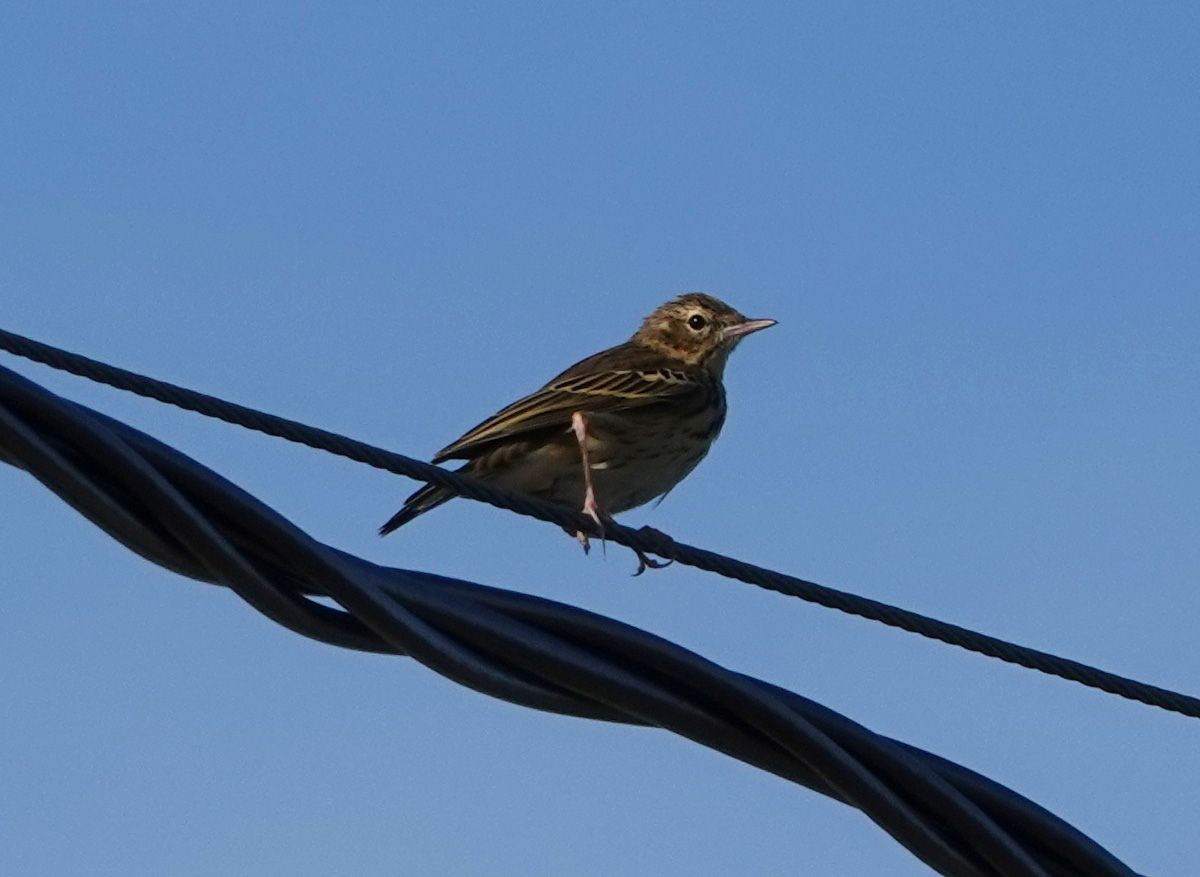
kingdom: Animalia
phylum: Chordata
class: Aves
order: Passeriformes
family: Motacillidae
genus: Anthus
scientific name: Anthus trivialis
